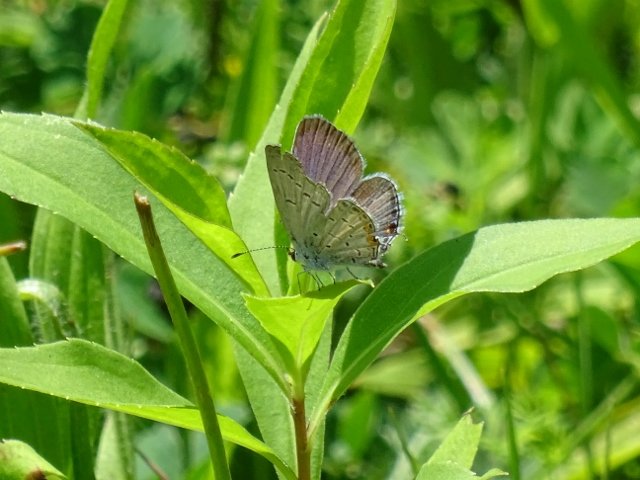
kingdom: Animalia
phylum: Arthropoda
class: Insecta
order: Lepidoptera
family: Lycaenidae
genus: Elkalyce
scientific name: Elkalyce comyntas
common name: Eastern Tailed-Blue
